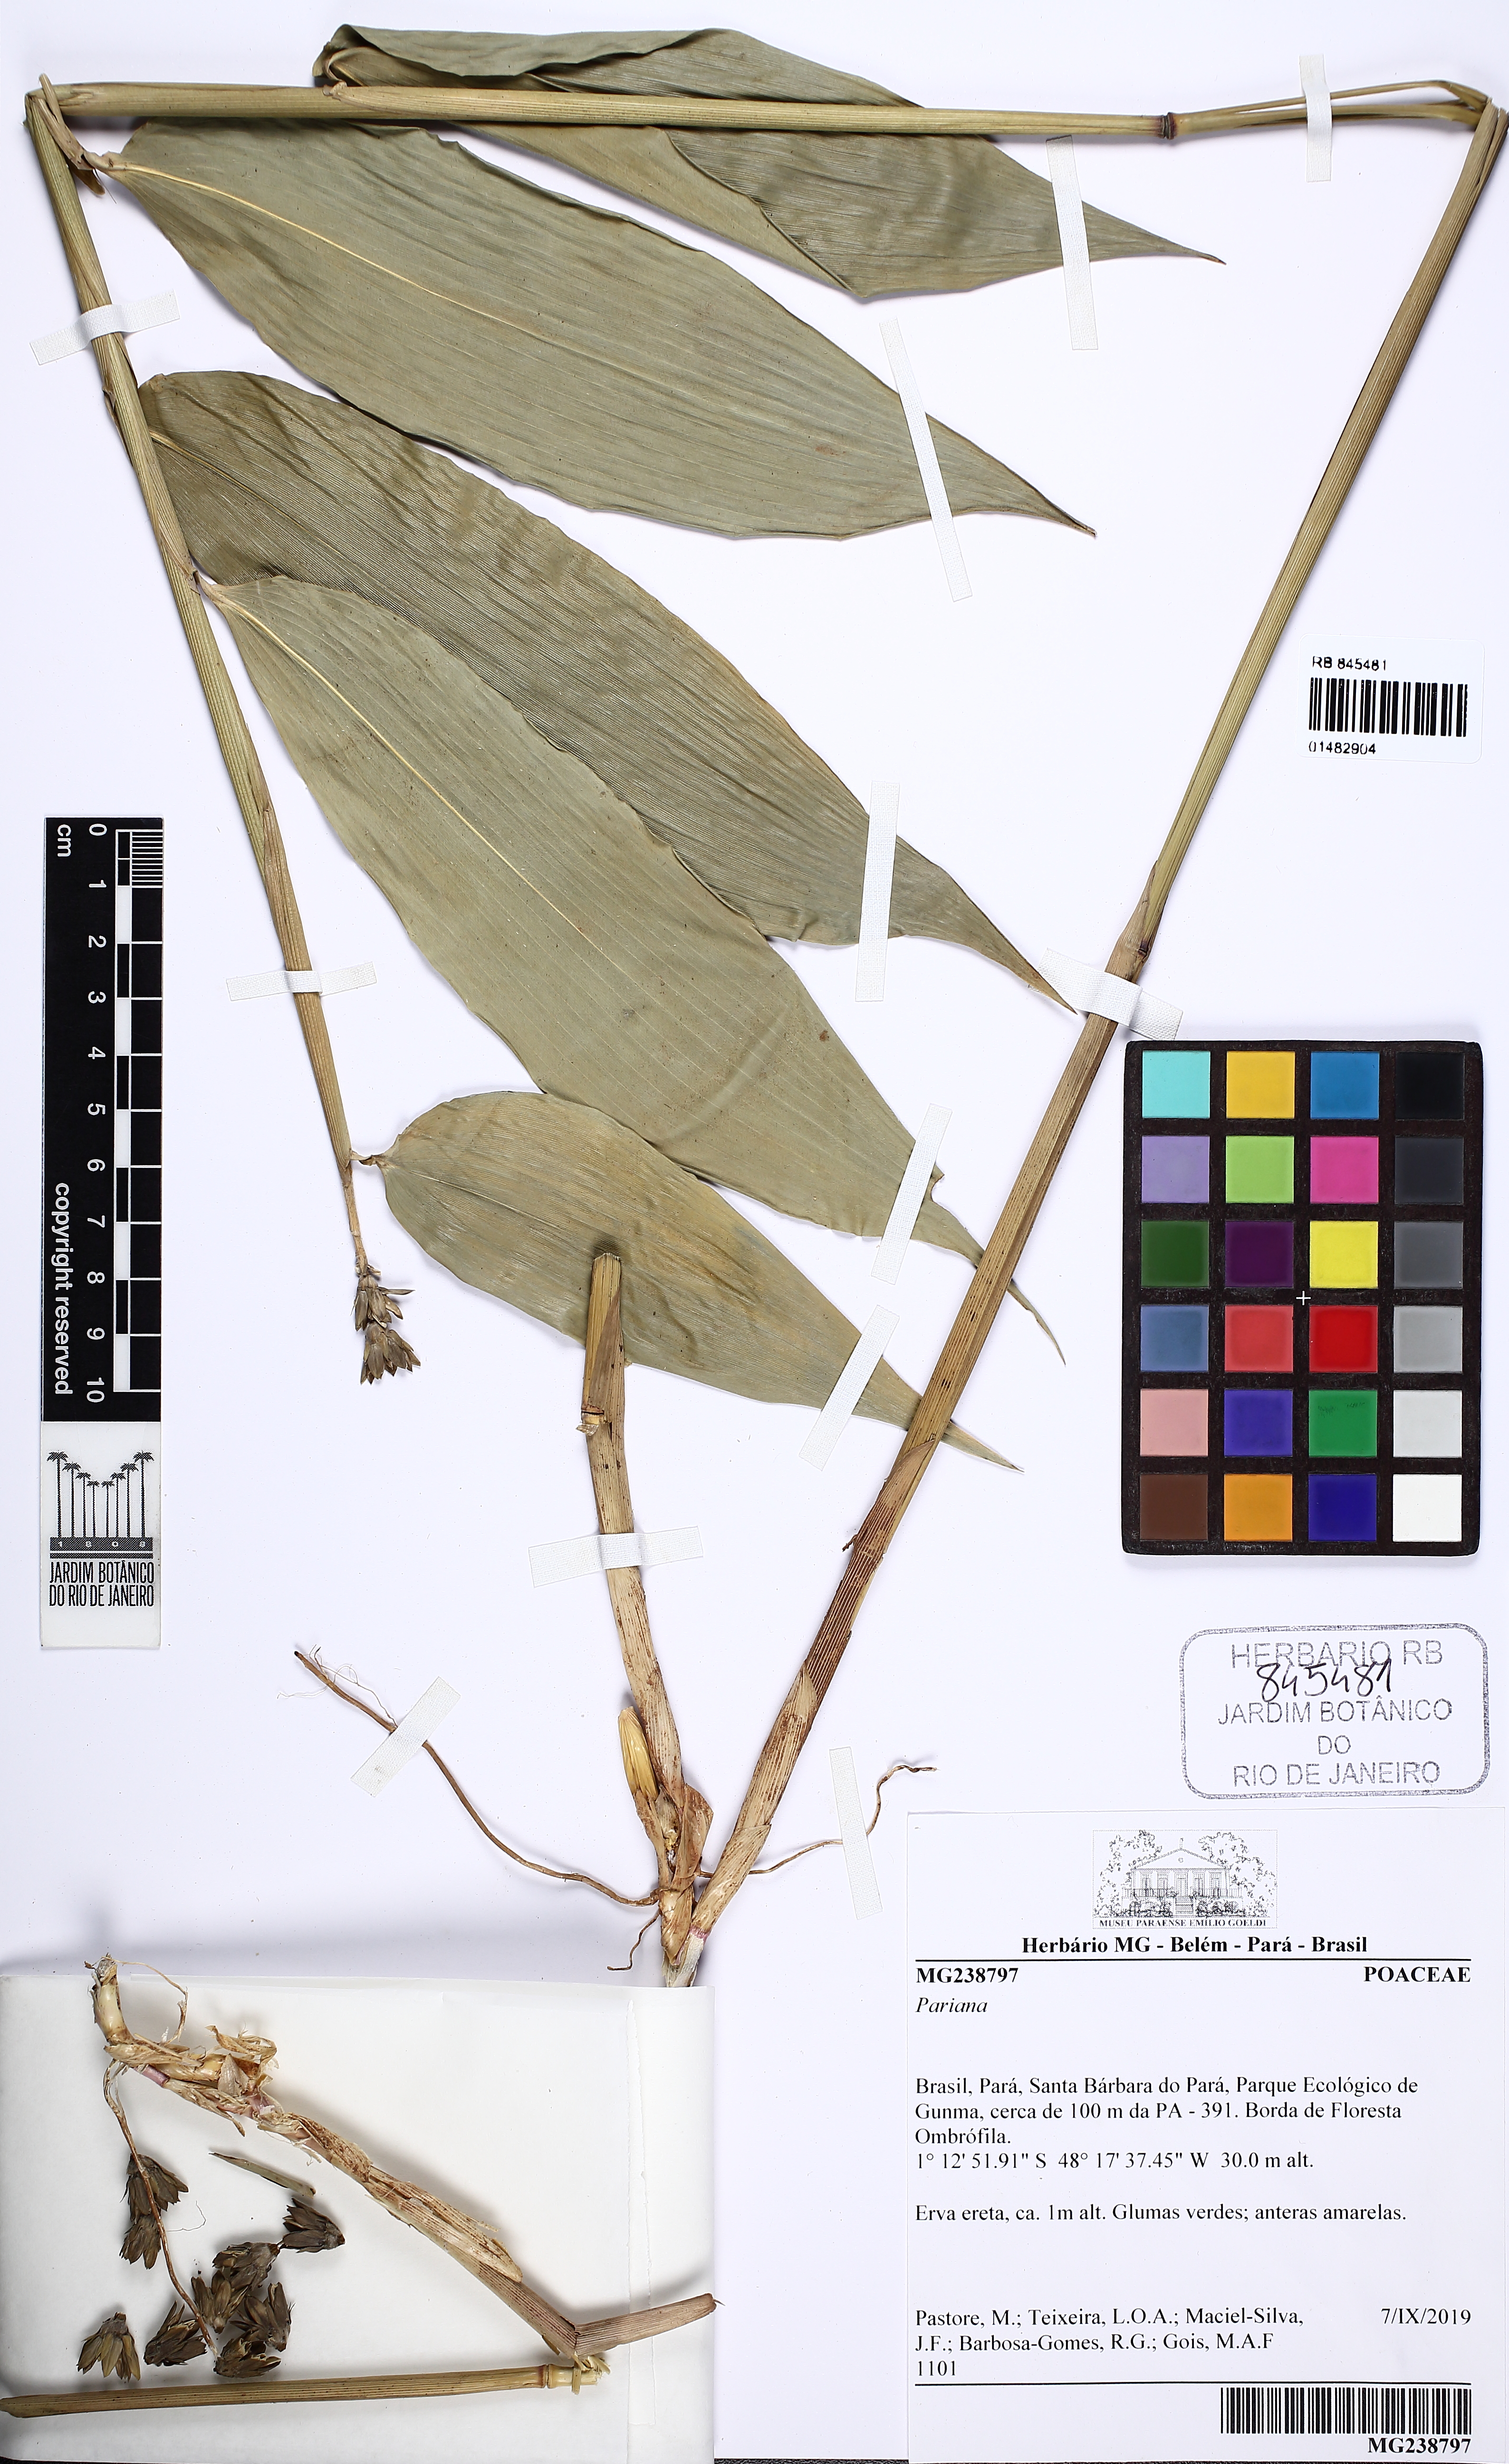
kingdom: Plantae
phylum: Tracheophyta
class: Liliopsida
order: Poales
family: Poaceae
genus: Pariana
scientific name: Pariana
